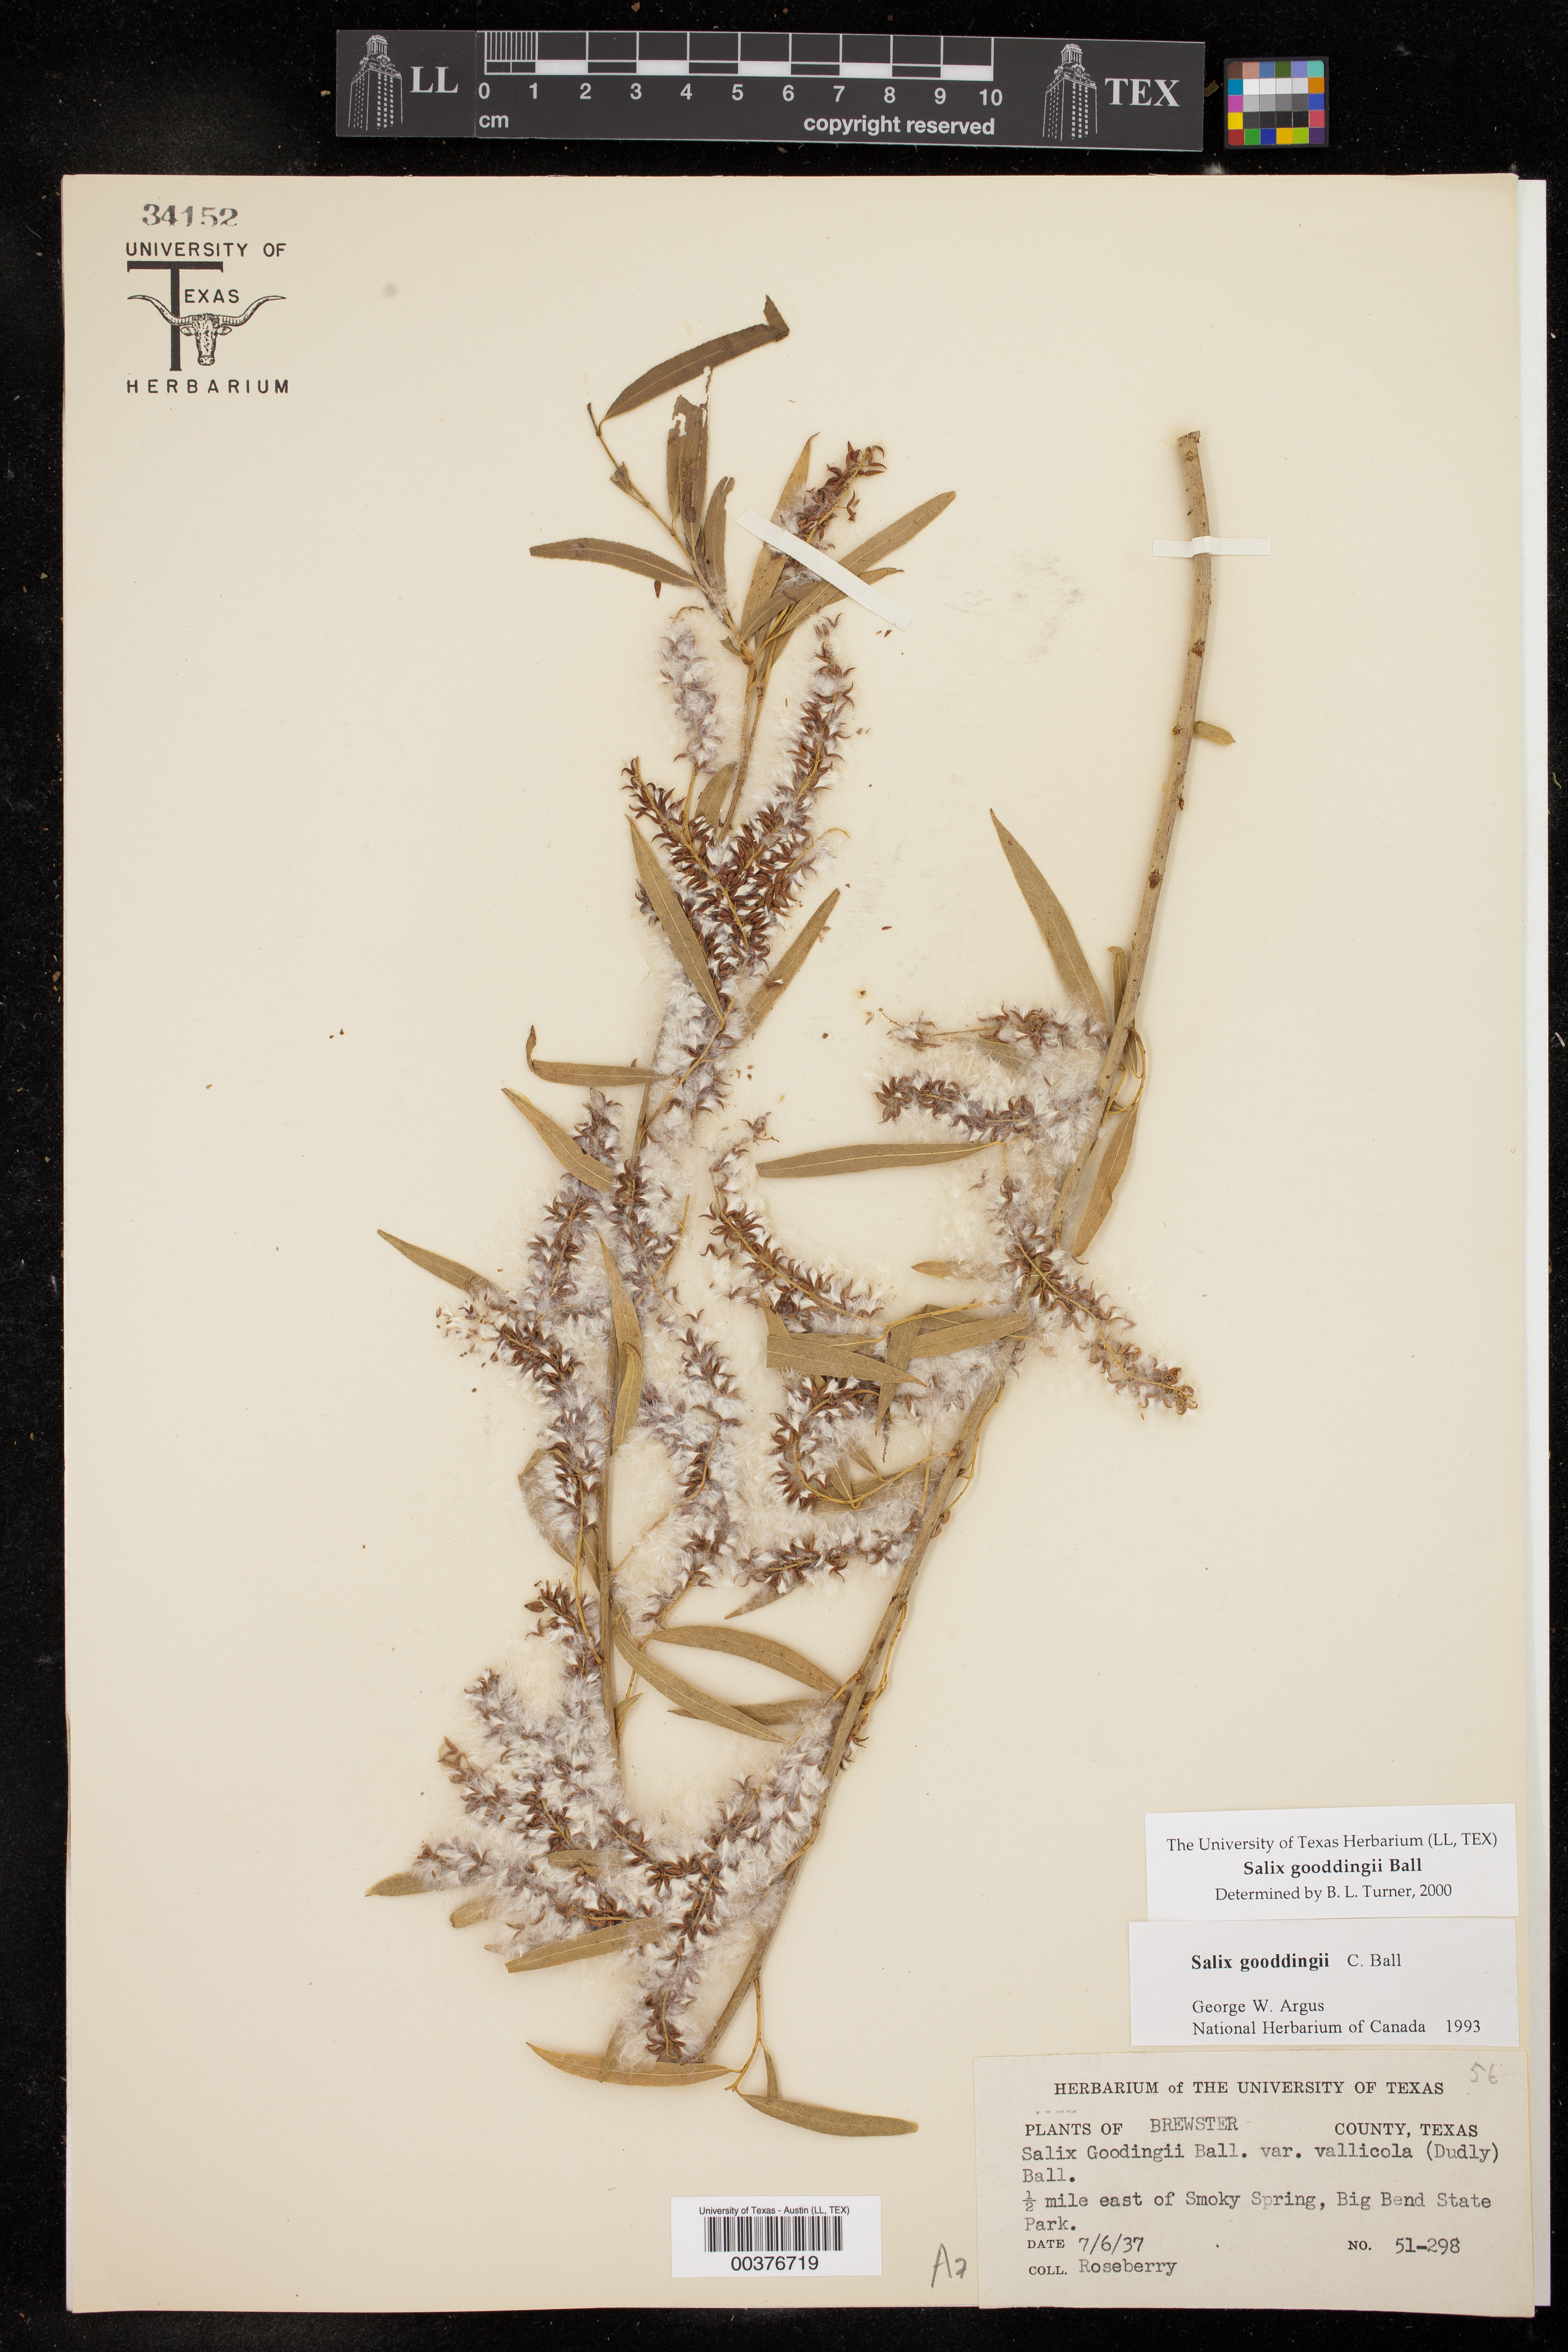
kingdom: Plantae
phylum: Tracheophyta
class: Magnoliopsida
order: Malpighiales
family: Salicaceae
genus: Salix
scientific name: Salix gooddingii
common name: Goodding's willow
